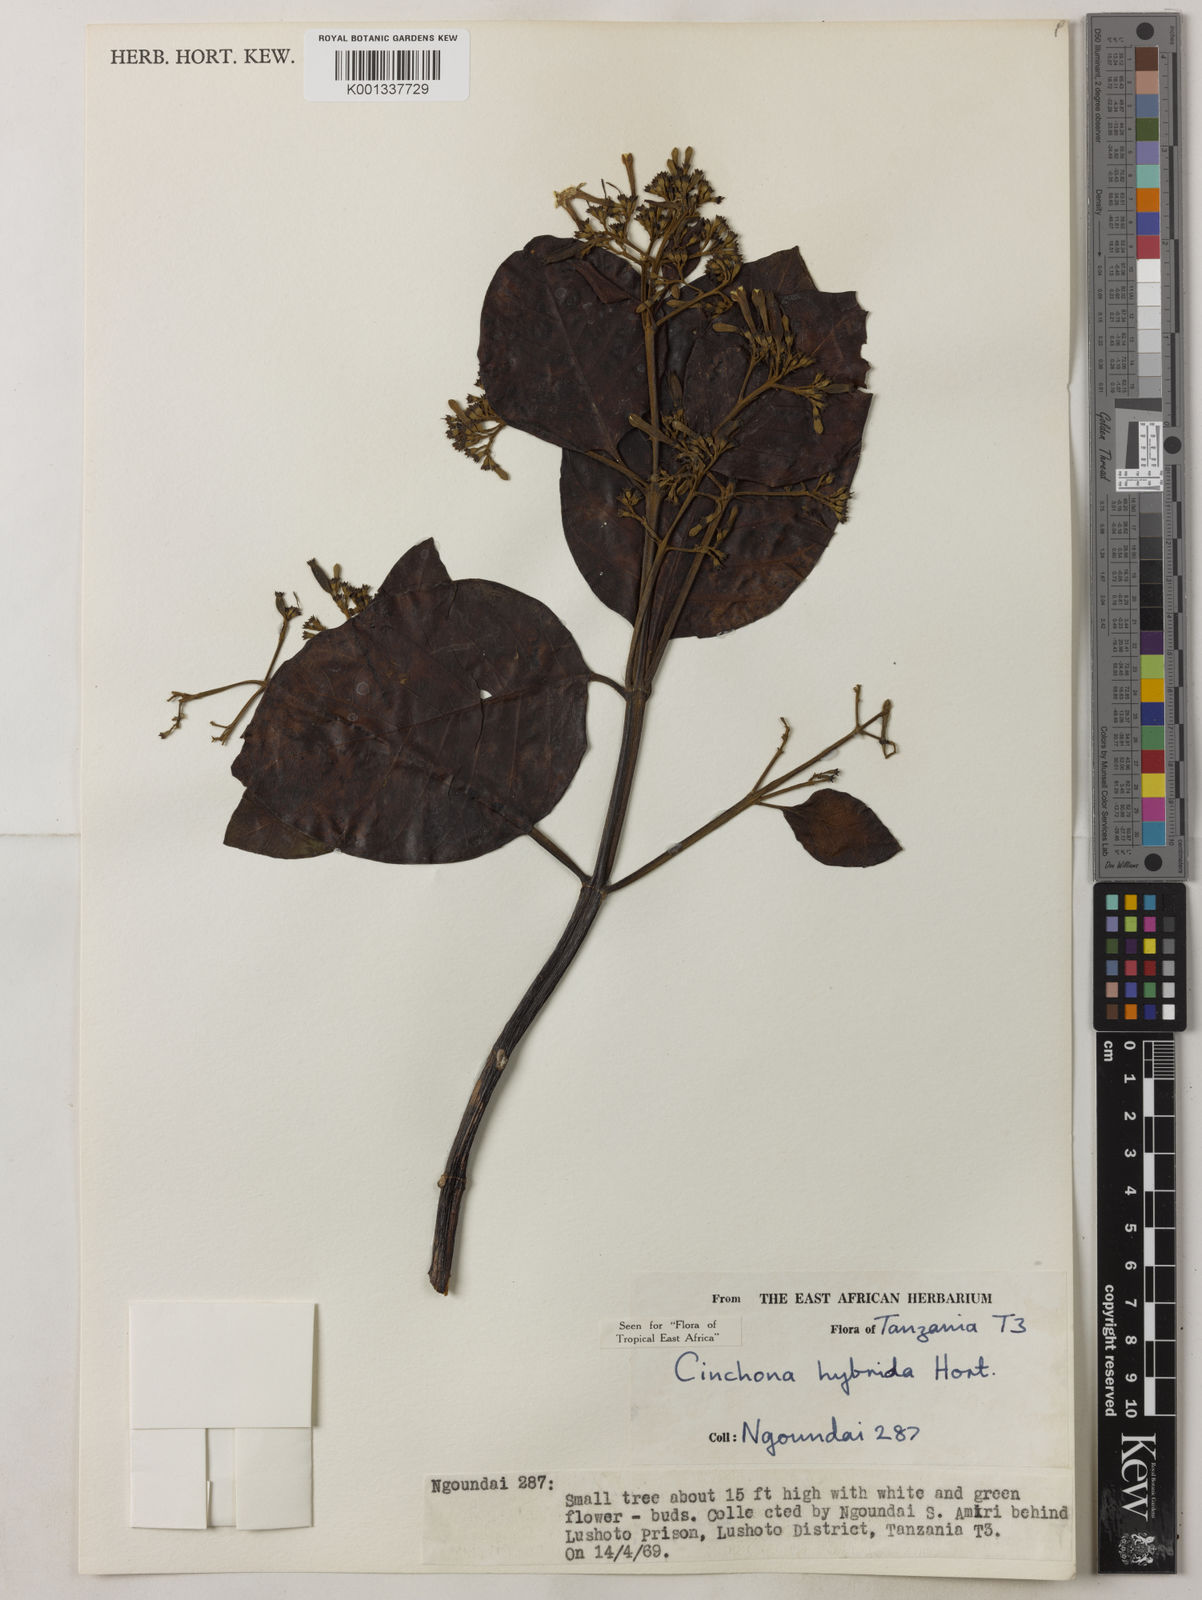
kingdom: Plantae
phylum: Tracheophyta
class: Magnoliopsida
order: Gentianales
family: Rubiaceae
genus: Cinchona
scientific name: Cinchona
